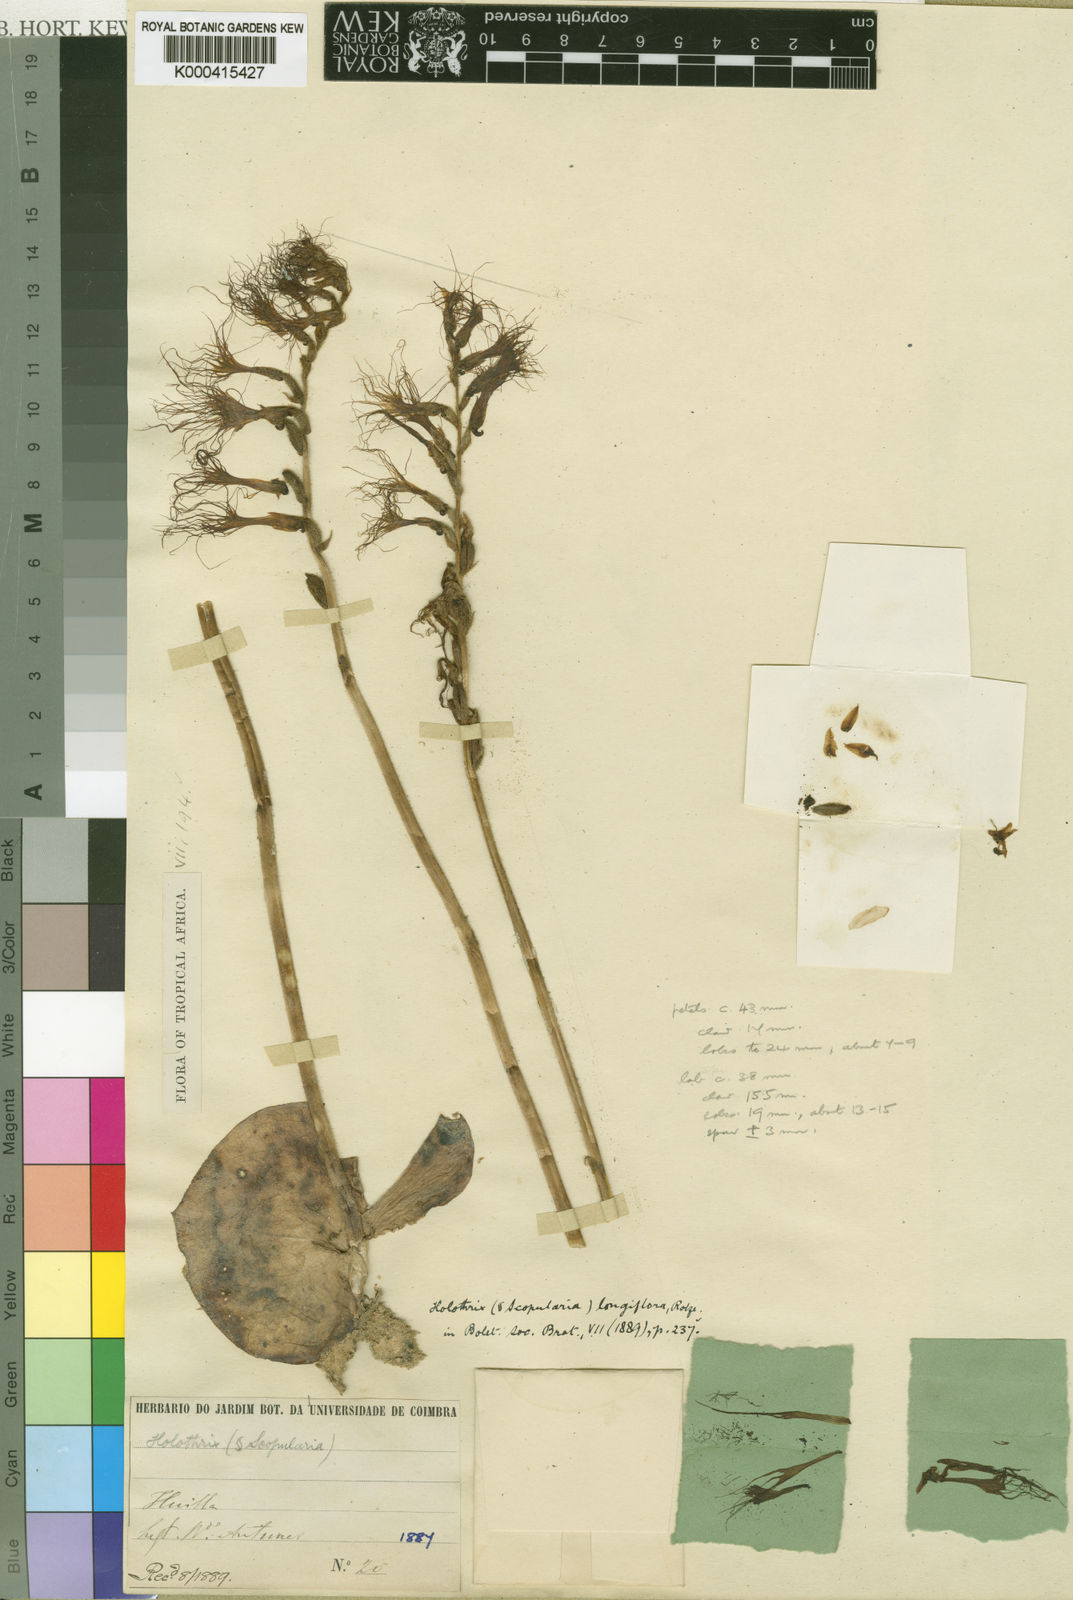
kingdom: Plantae
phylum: Tracheophyta
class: Liliopsida
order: Asparagales
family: Orchidaceae
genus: Holothrix
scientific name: Holothrix longiflora
